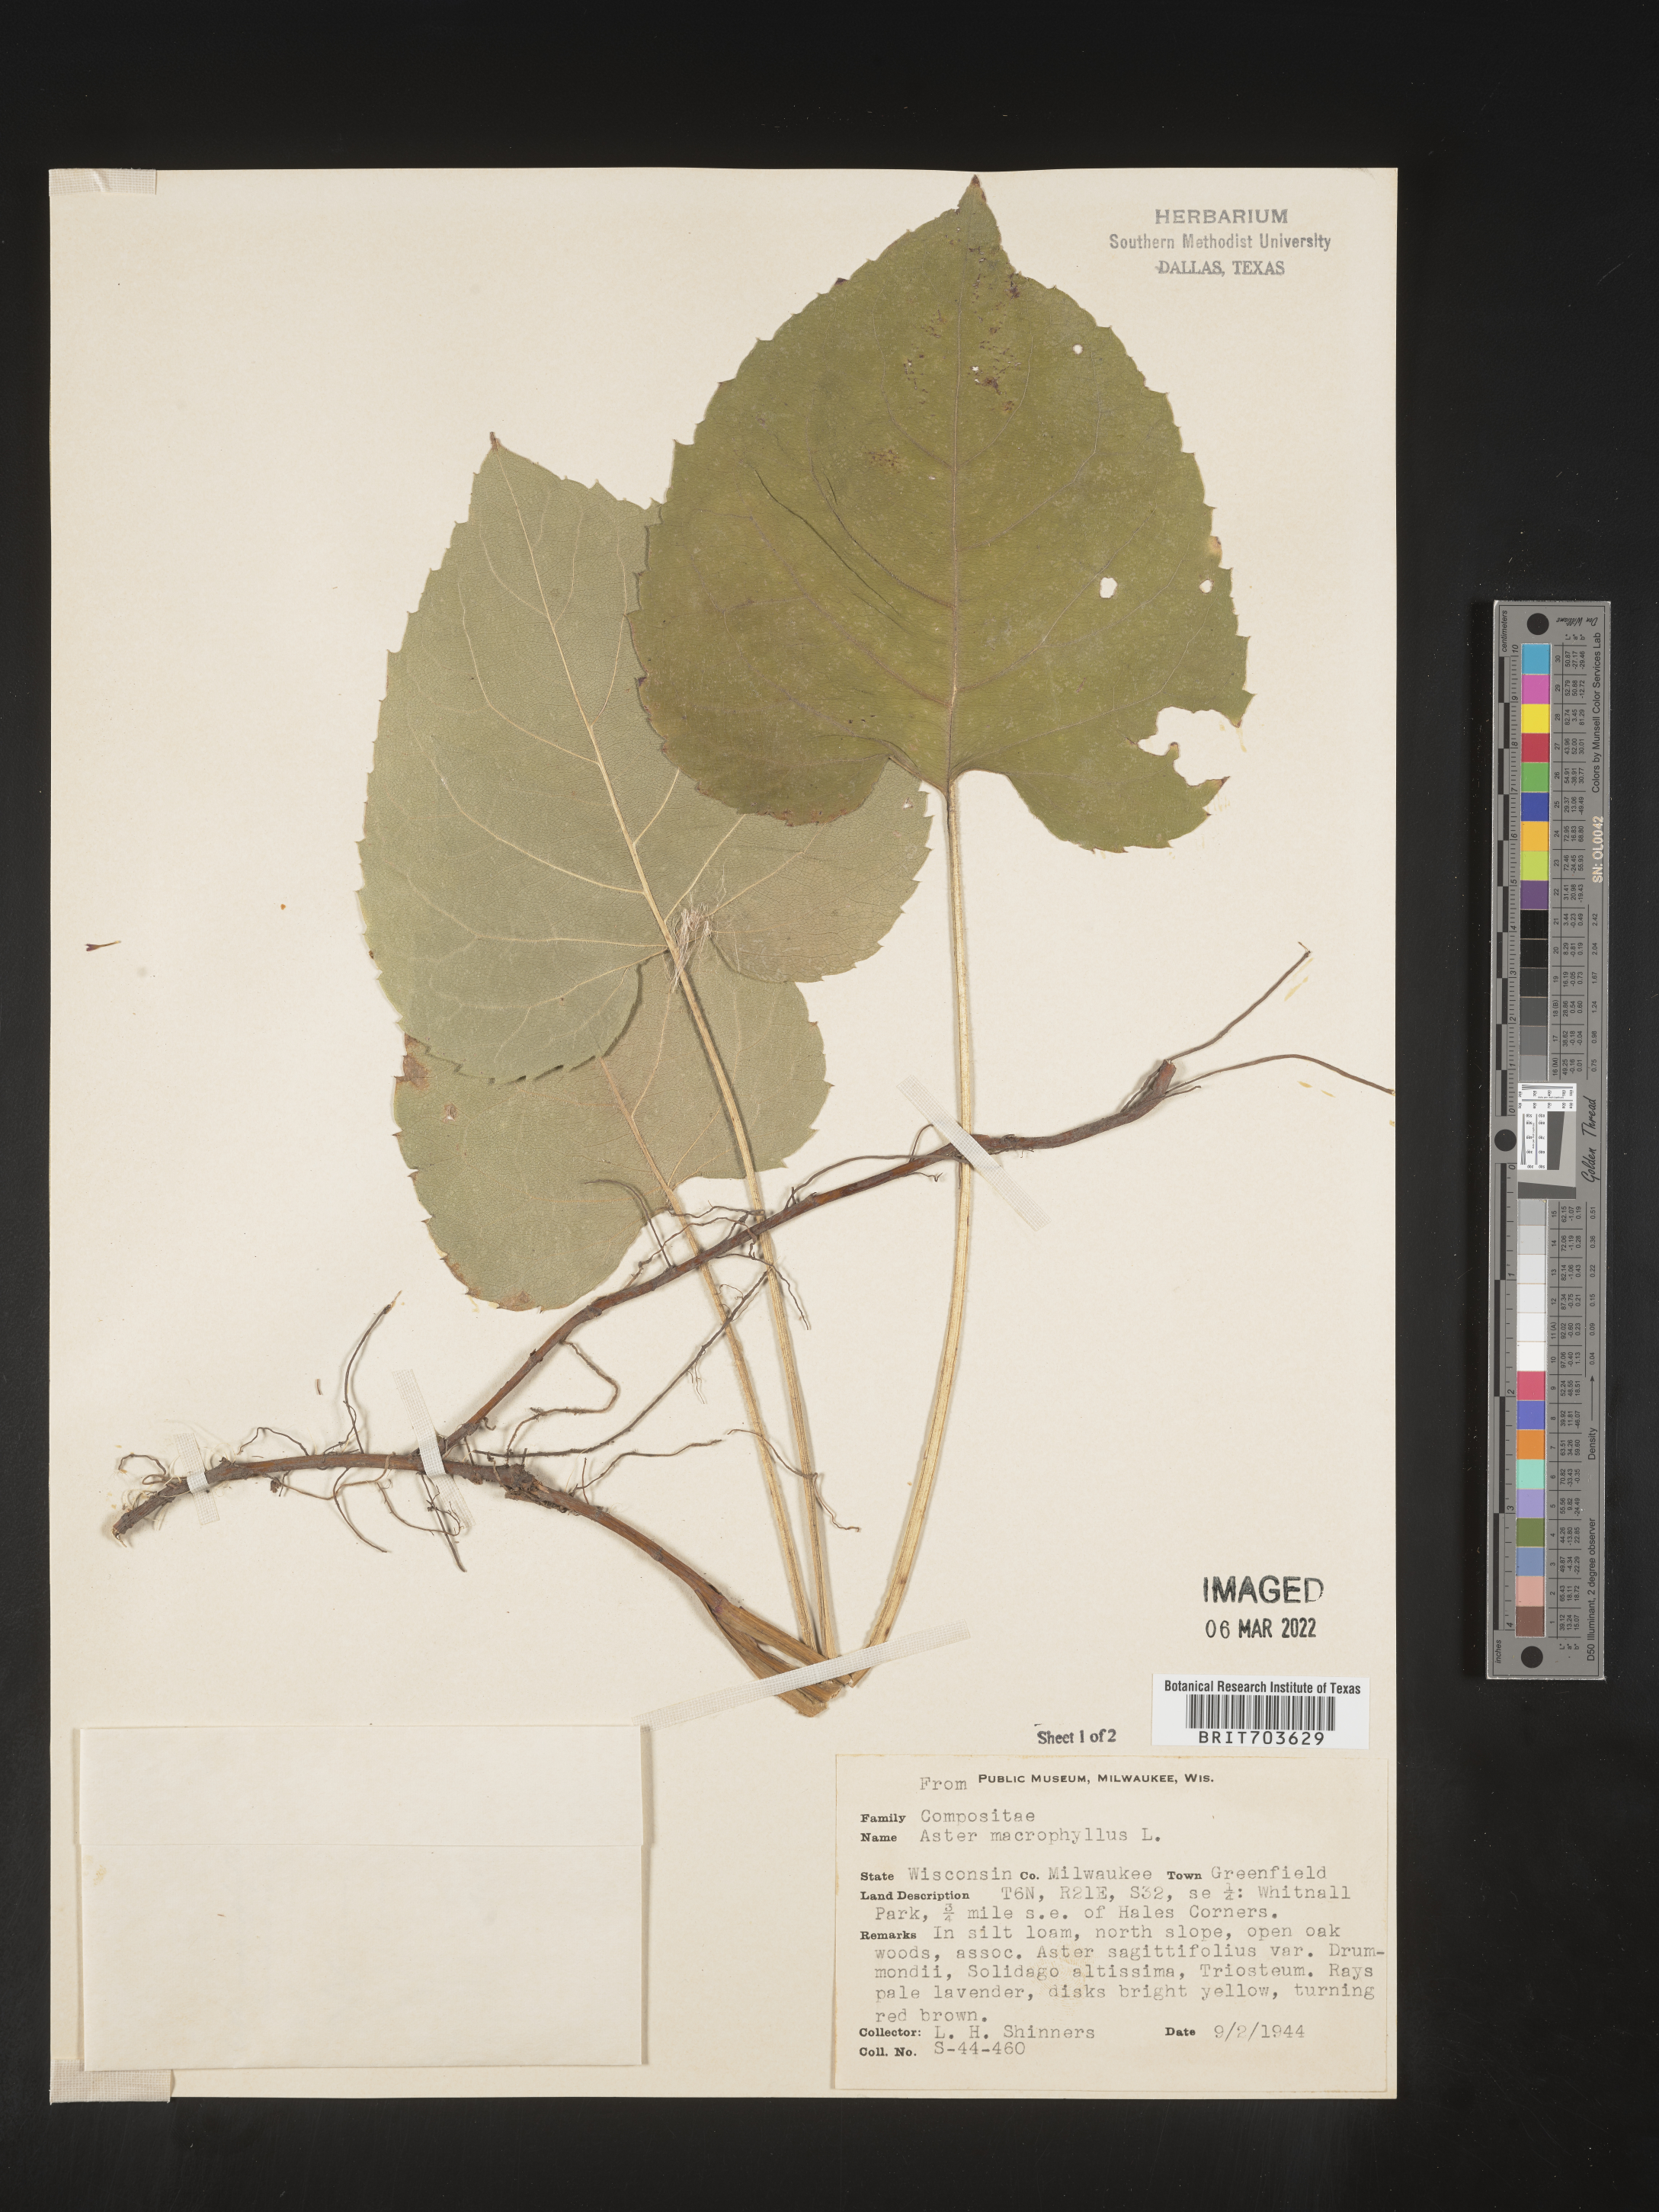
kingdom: Plantae
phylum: Tracheophyta
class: Magnoliopsida
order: Asterales
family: Asteraceae
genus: Eurybia
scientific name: Eurybia macrophylla
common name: Big-leaved aster
